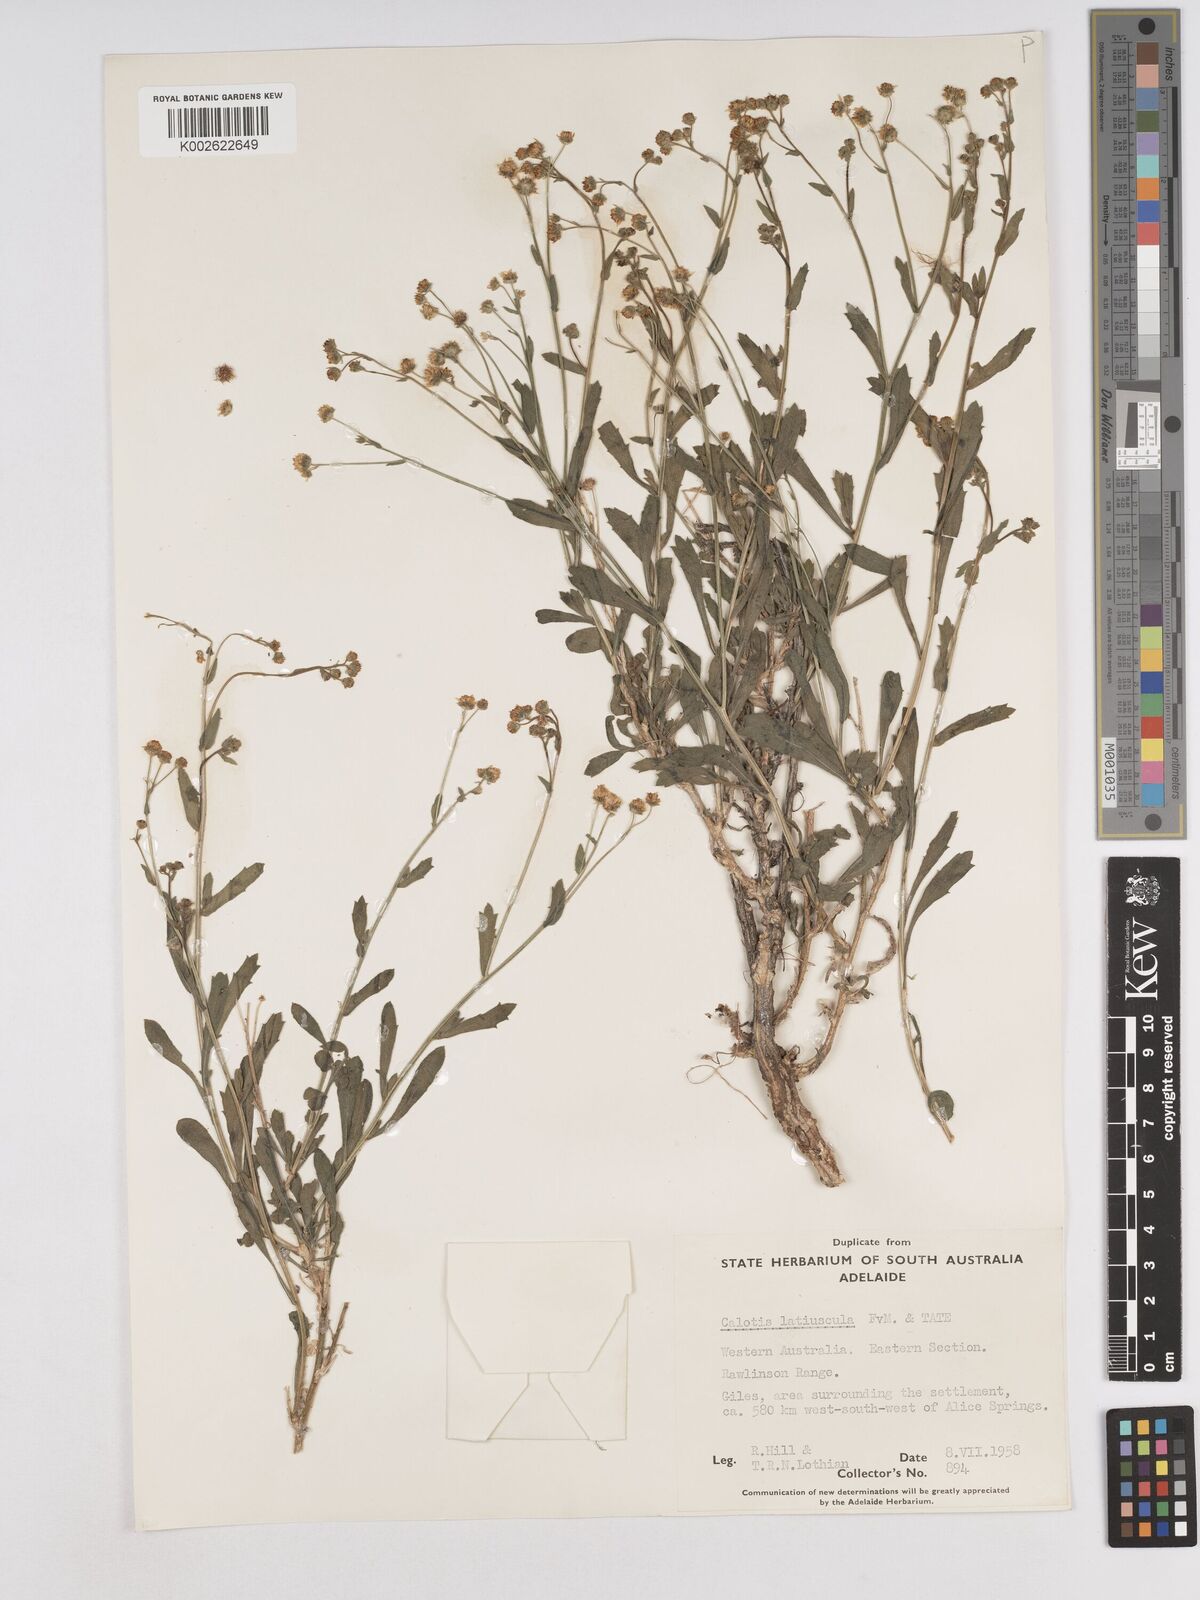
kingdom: Plantae
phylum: Tracheophyta
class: Magnoliopsida
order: Asterales
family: Asteraceae
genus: Calotis
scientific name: Calotis latiuscula
